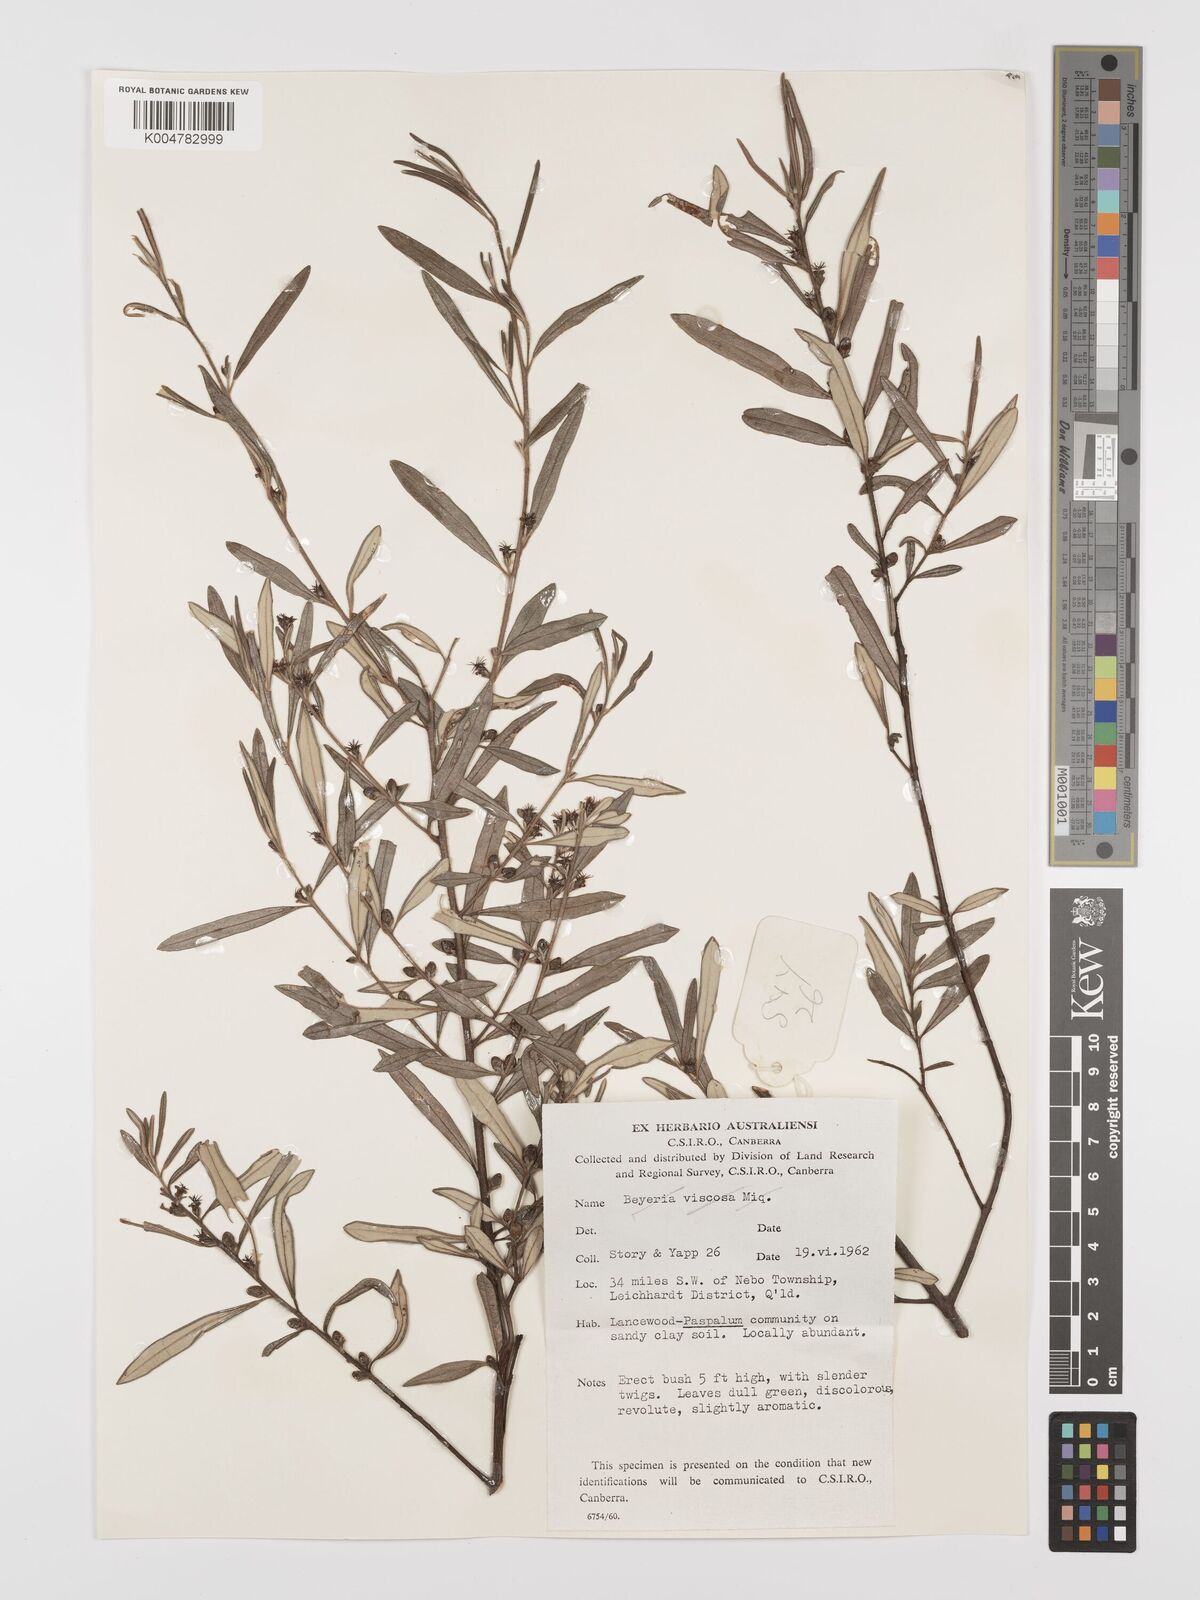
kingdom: Plantae
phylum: Tracheophyta
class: Magnoliopsida
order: Malpighiales
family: Euphorbiaceae
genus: Bertya
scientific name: Bertya polystigma
